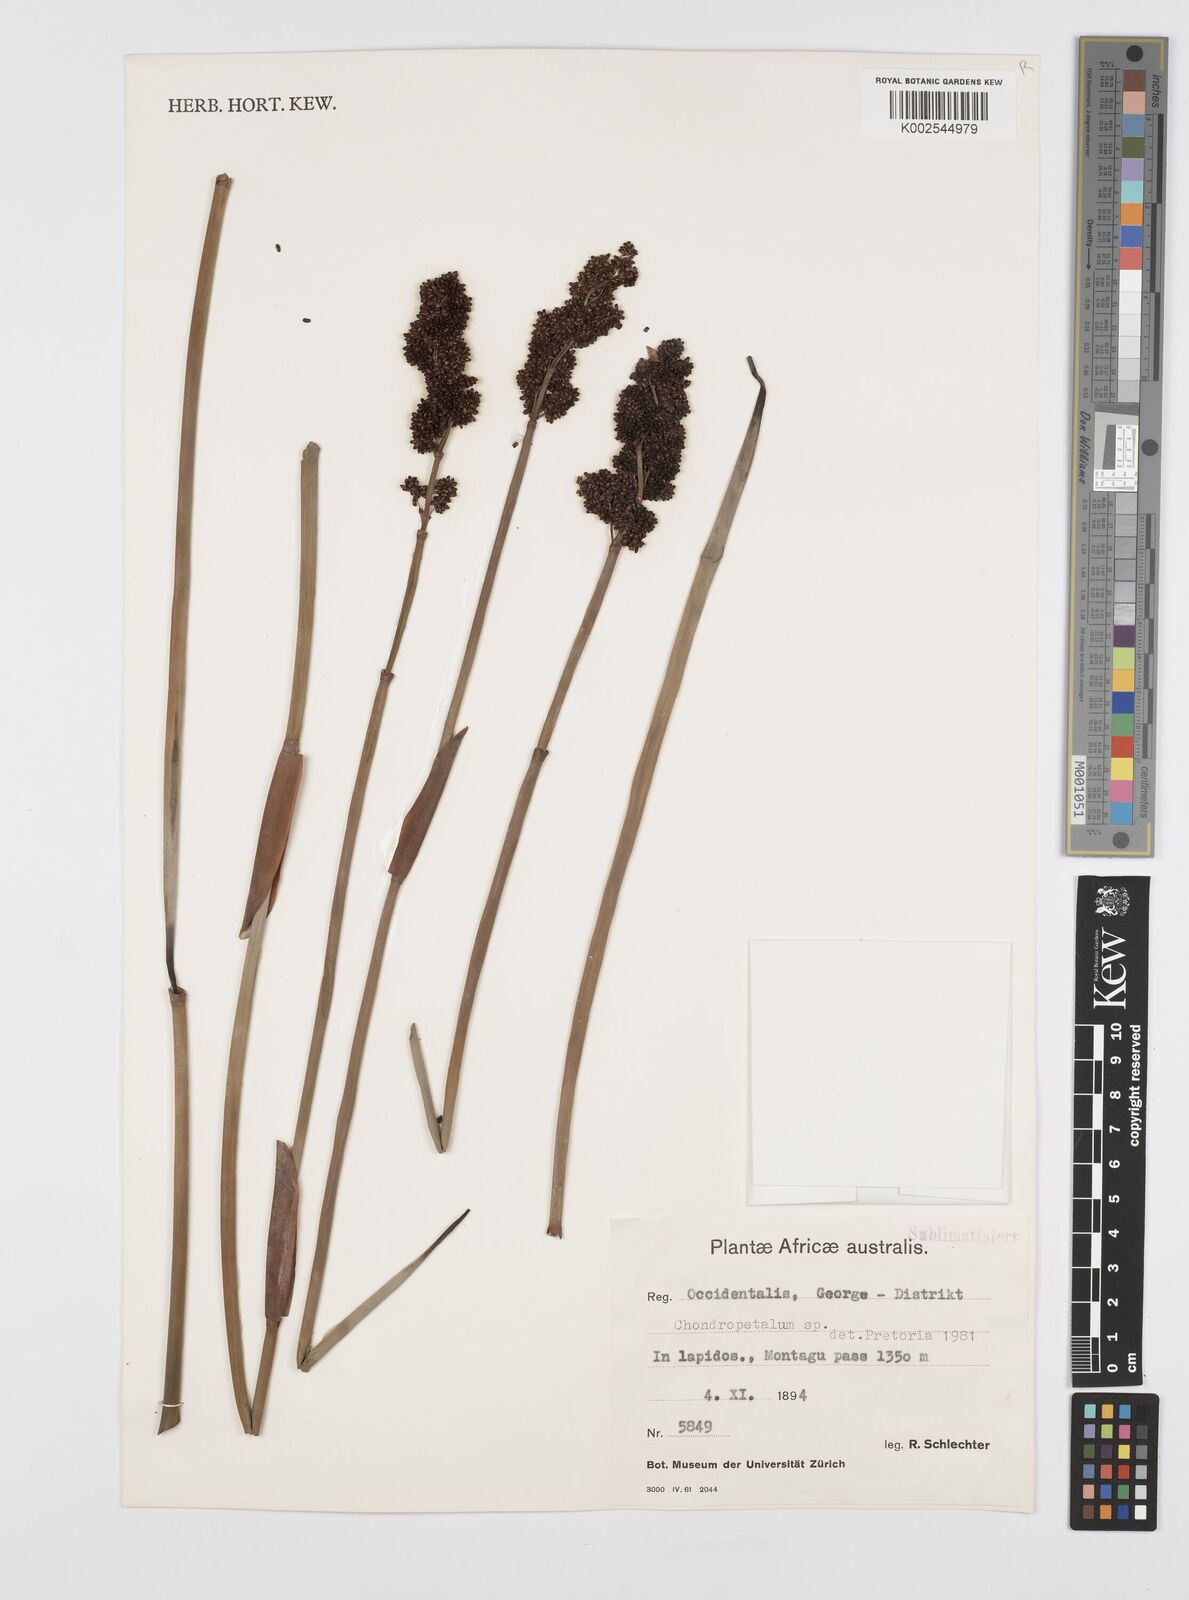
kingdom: Plantae
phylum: Tracheophyta
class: Liliopsida
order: Poales
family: Restionaceae
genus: Elegia
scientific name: Elegia
